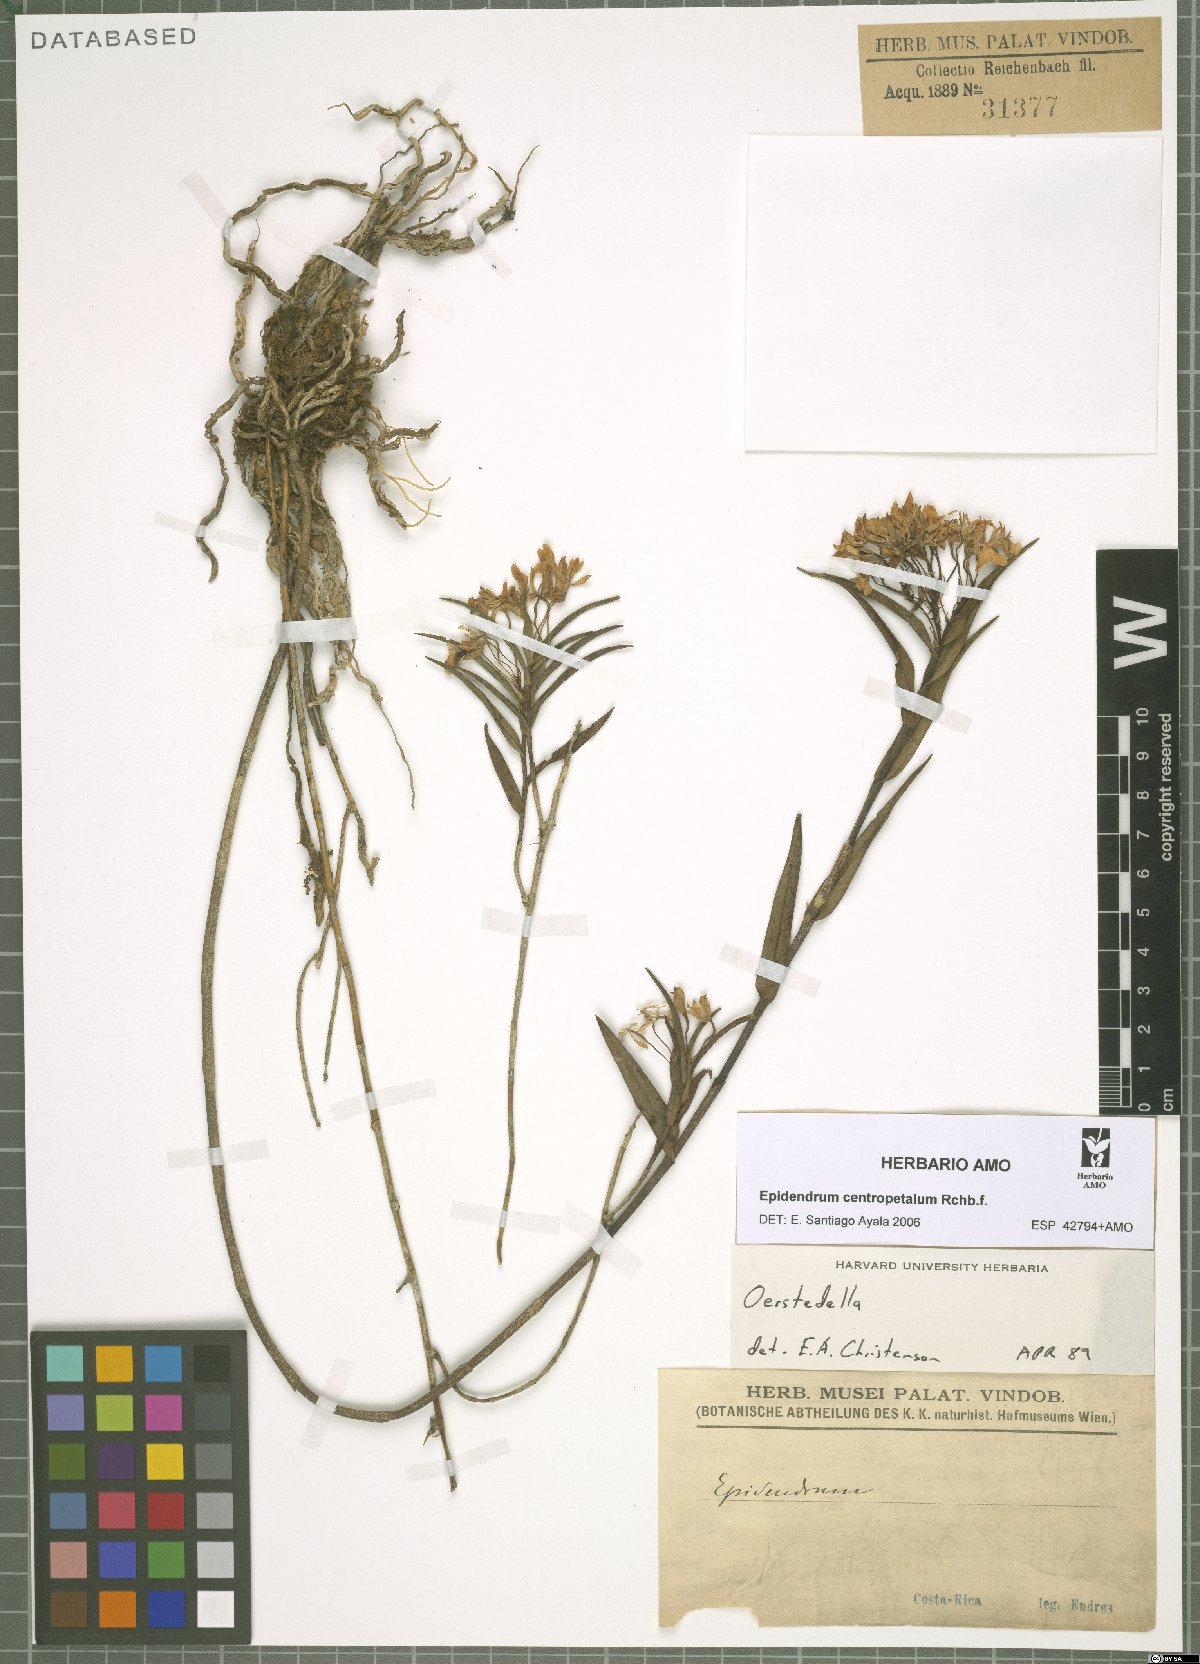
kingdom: Plantae
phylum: Tracheophyta
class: Liliopsida
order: Asparagales
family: Orchidaceae
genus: Epidendrum
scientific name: Epidendrum centropetalum
